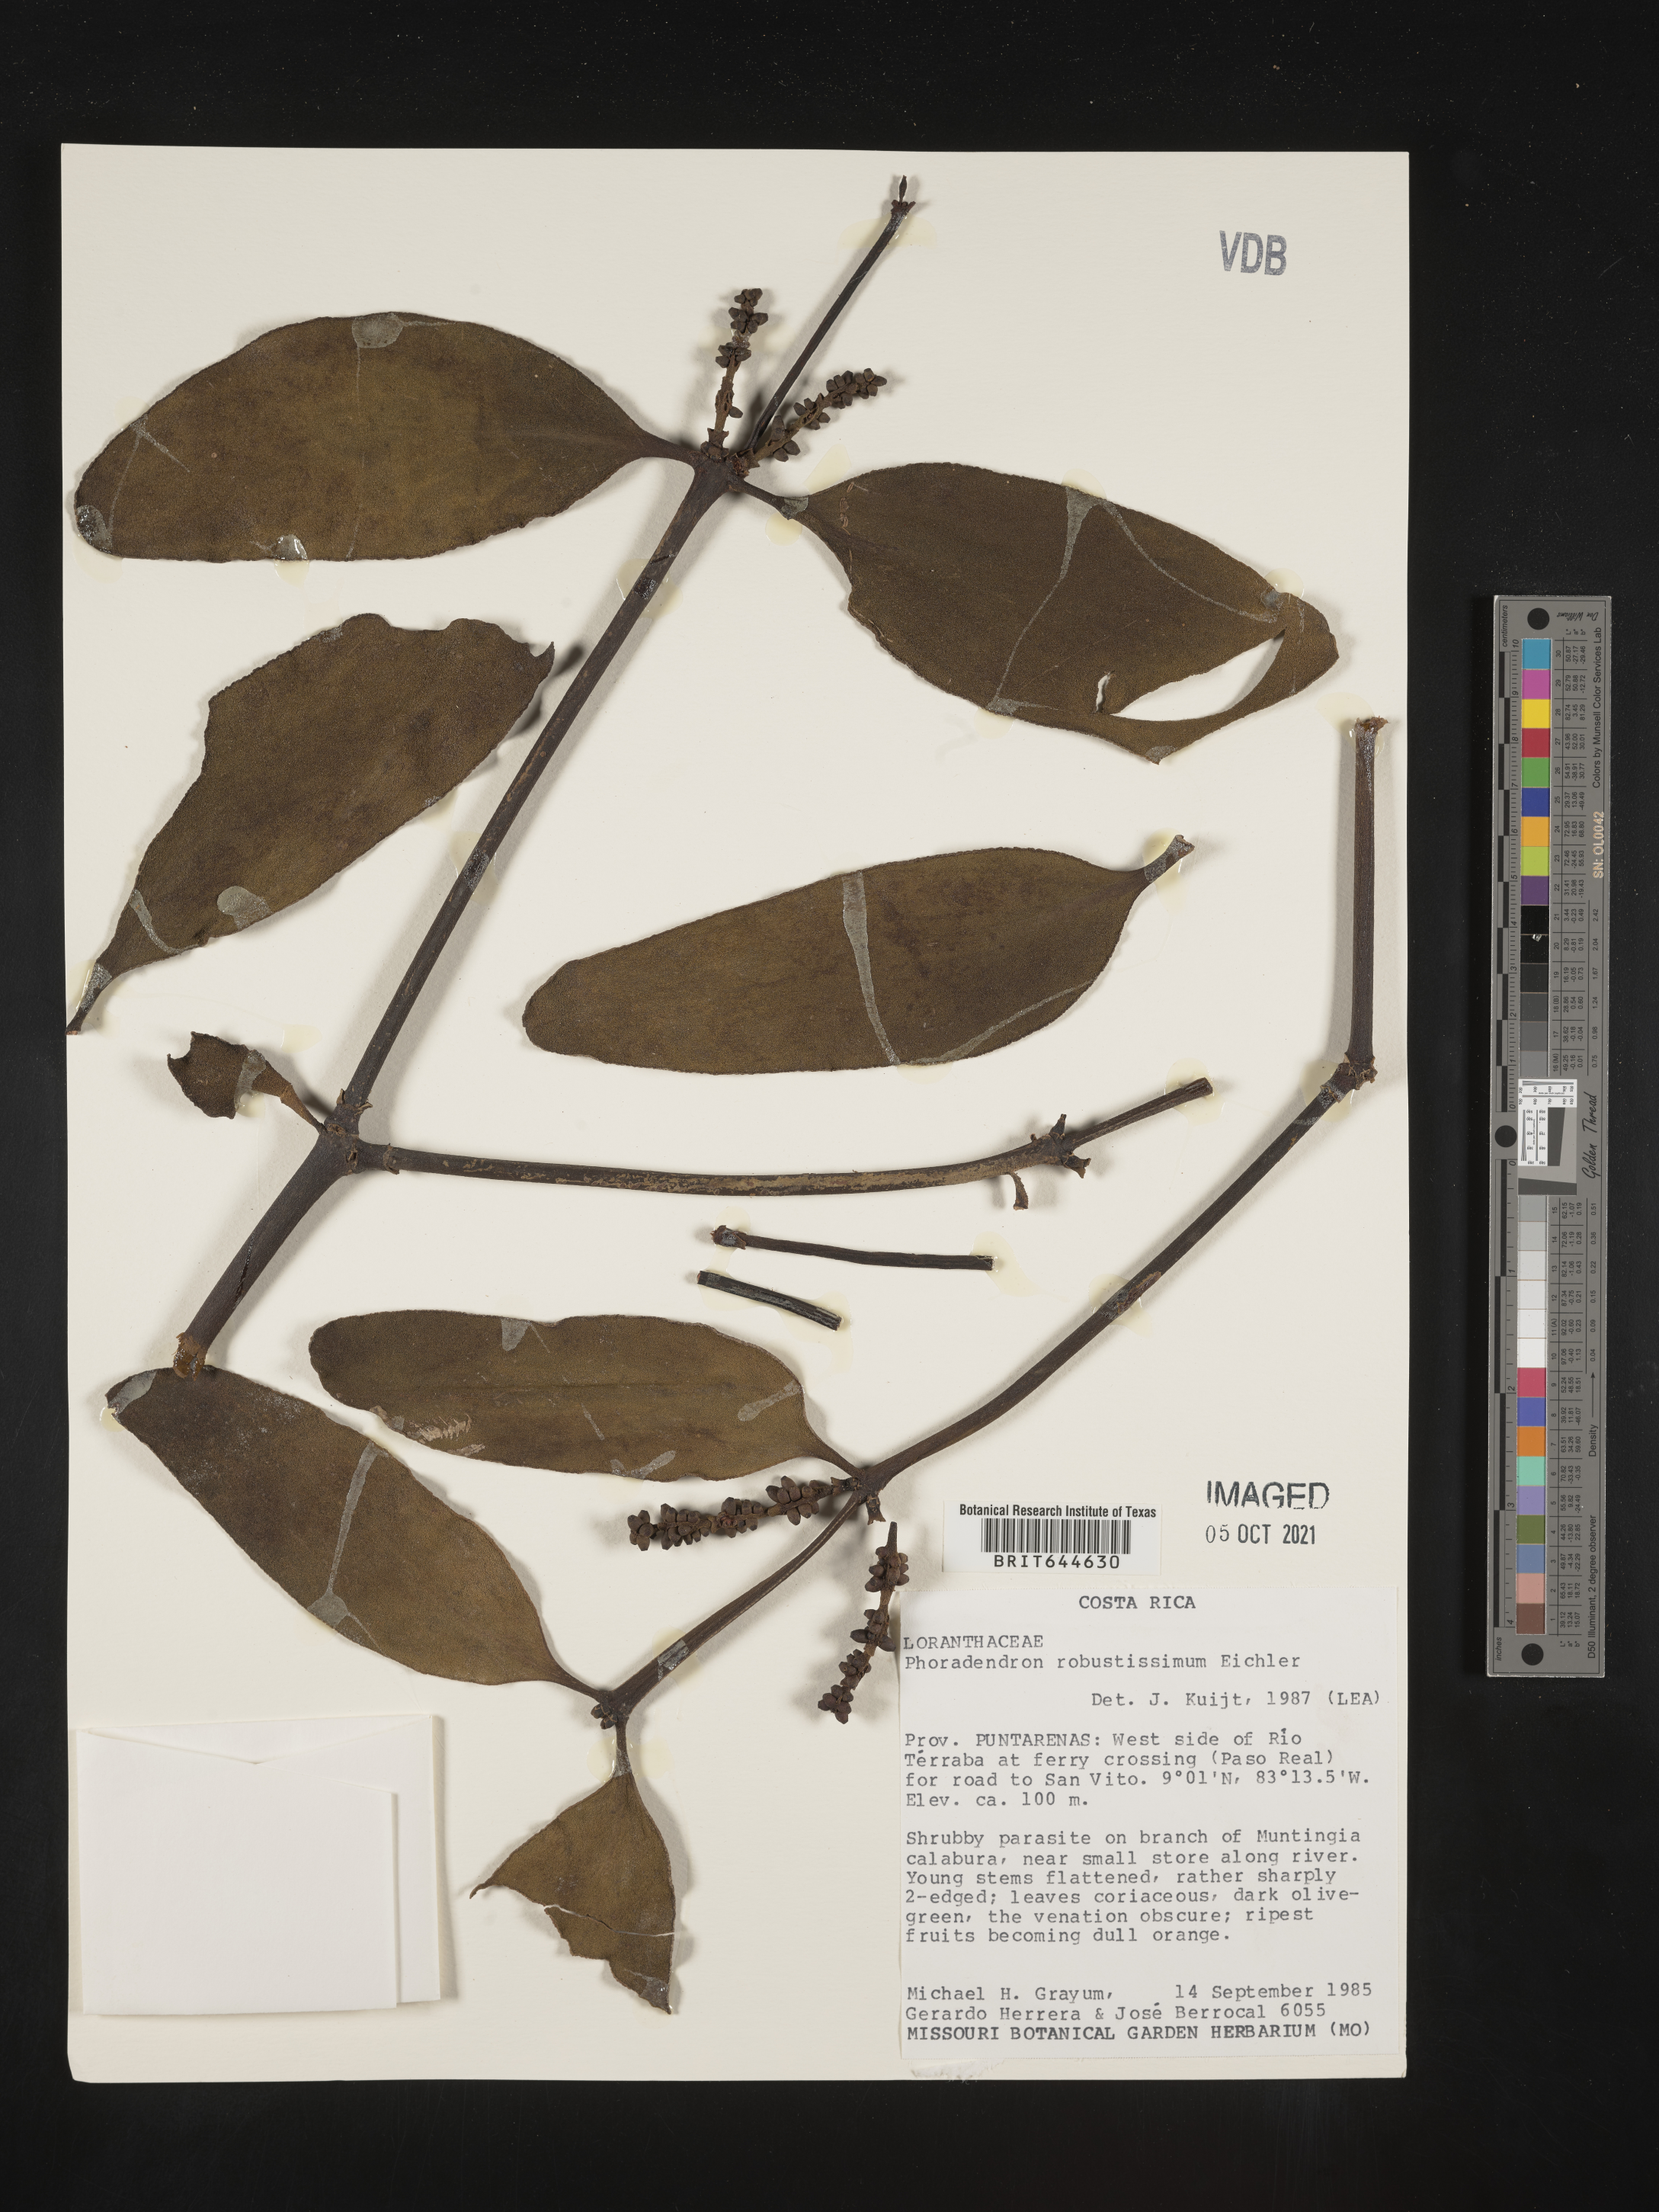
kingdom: Plantae
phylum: Tracheophyta
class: Magnoliopsida
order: Santalales
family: Viscaceae
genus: Phoradendron
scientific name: Phoradendron
